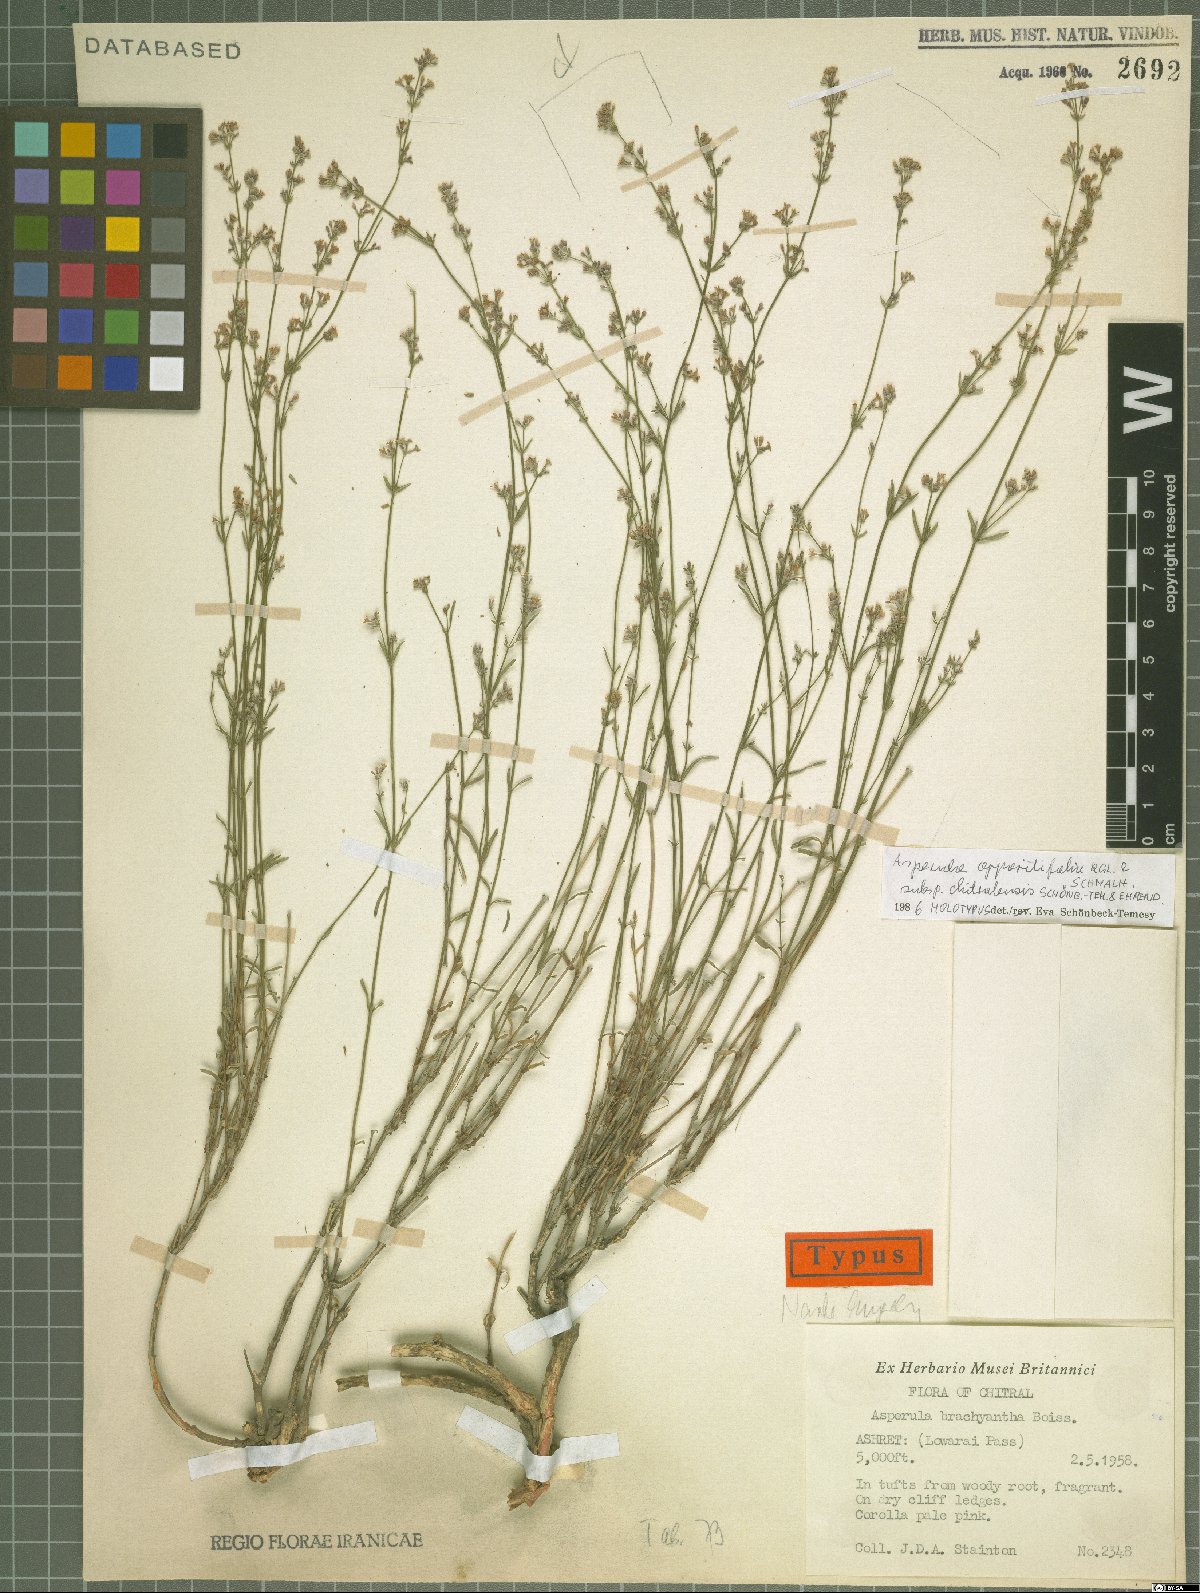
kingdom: Plantae
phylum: Tracheophyta
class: Magnoliopsida
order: Gentianales
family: Rubiaceae
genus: Asperula
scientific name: Asperula oppositifolia
